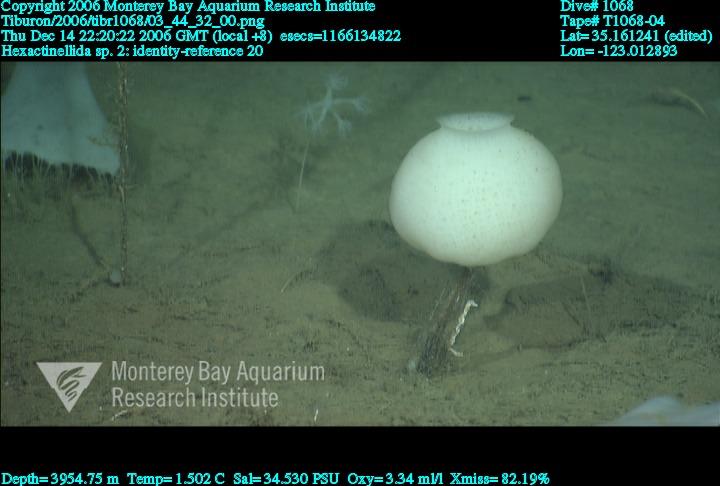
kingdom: Animalia
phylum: Porifera
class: Hexactinellida
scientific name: Hexactinellida
